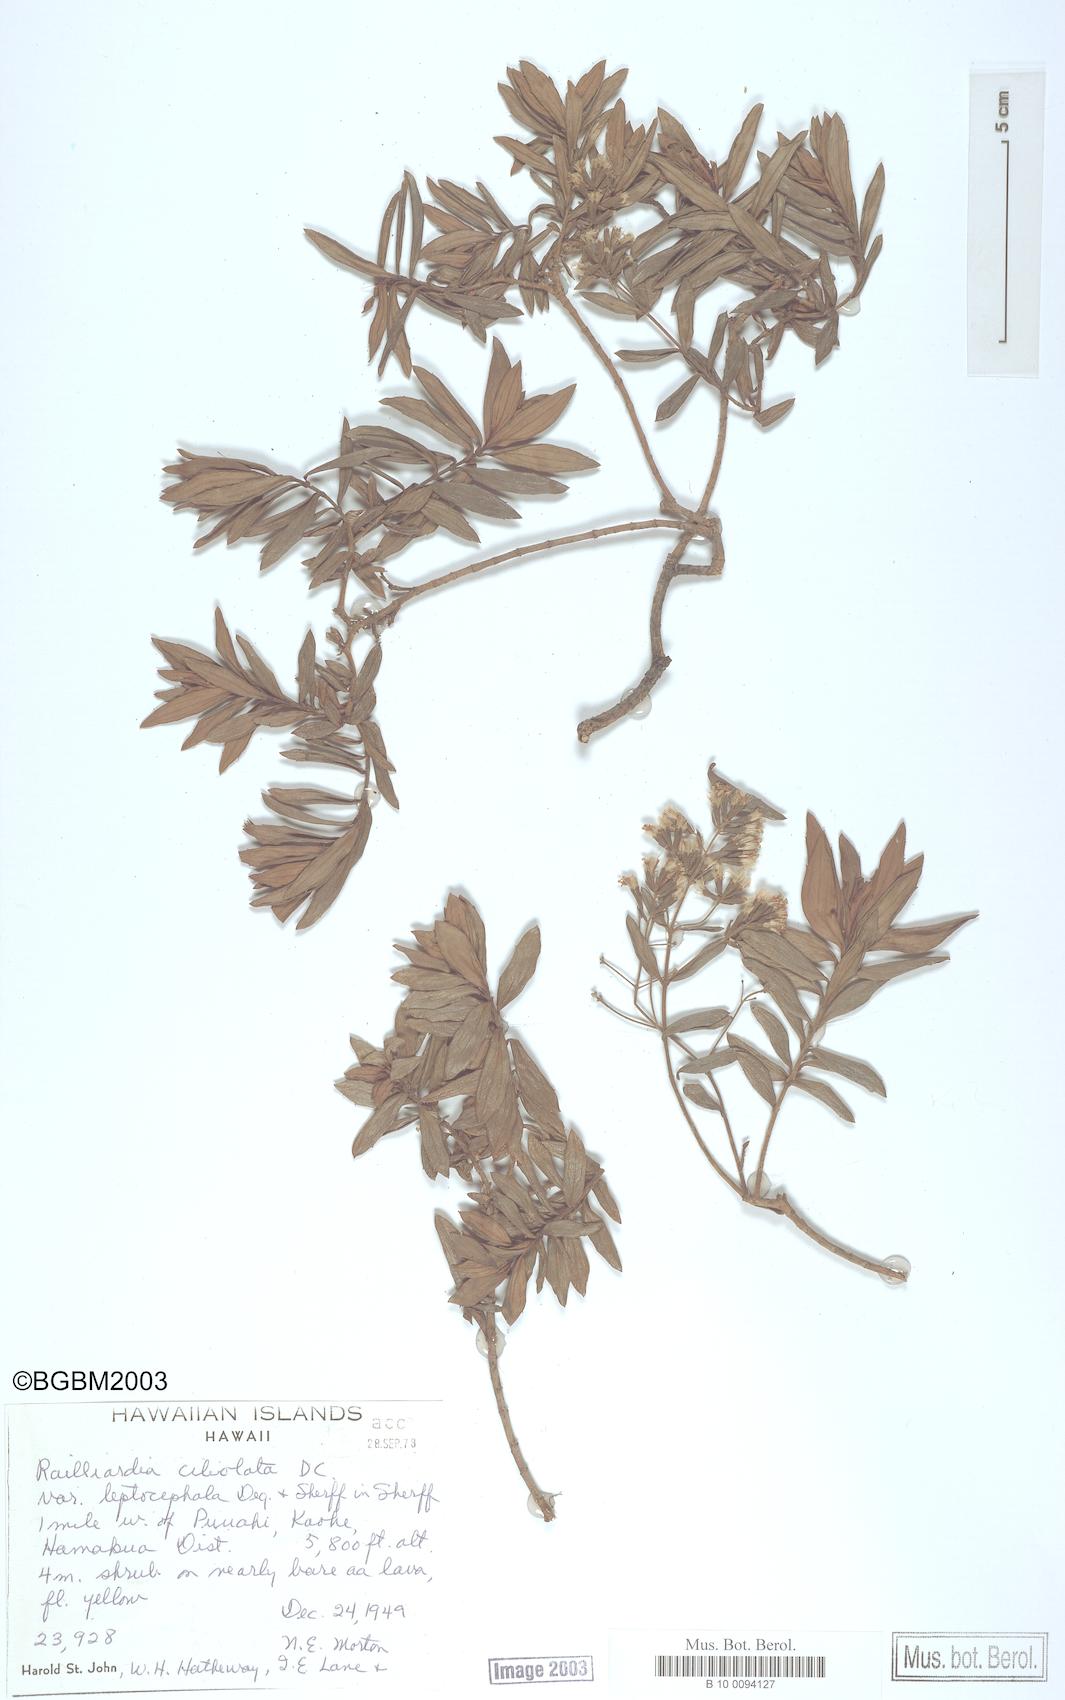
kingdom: Plantae
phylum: Tracheophyta
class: Magnoliopsida
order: Asterales
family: Asteraceae
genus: Dubautia
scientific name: Dubautia linearis
